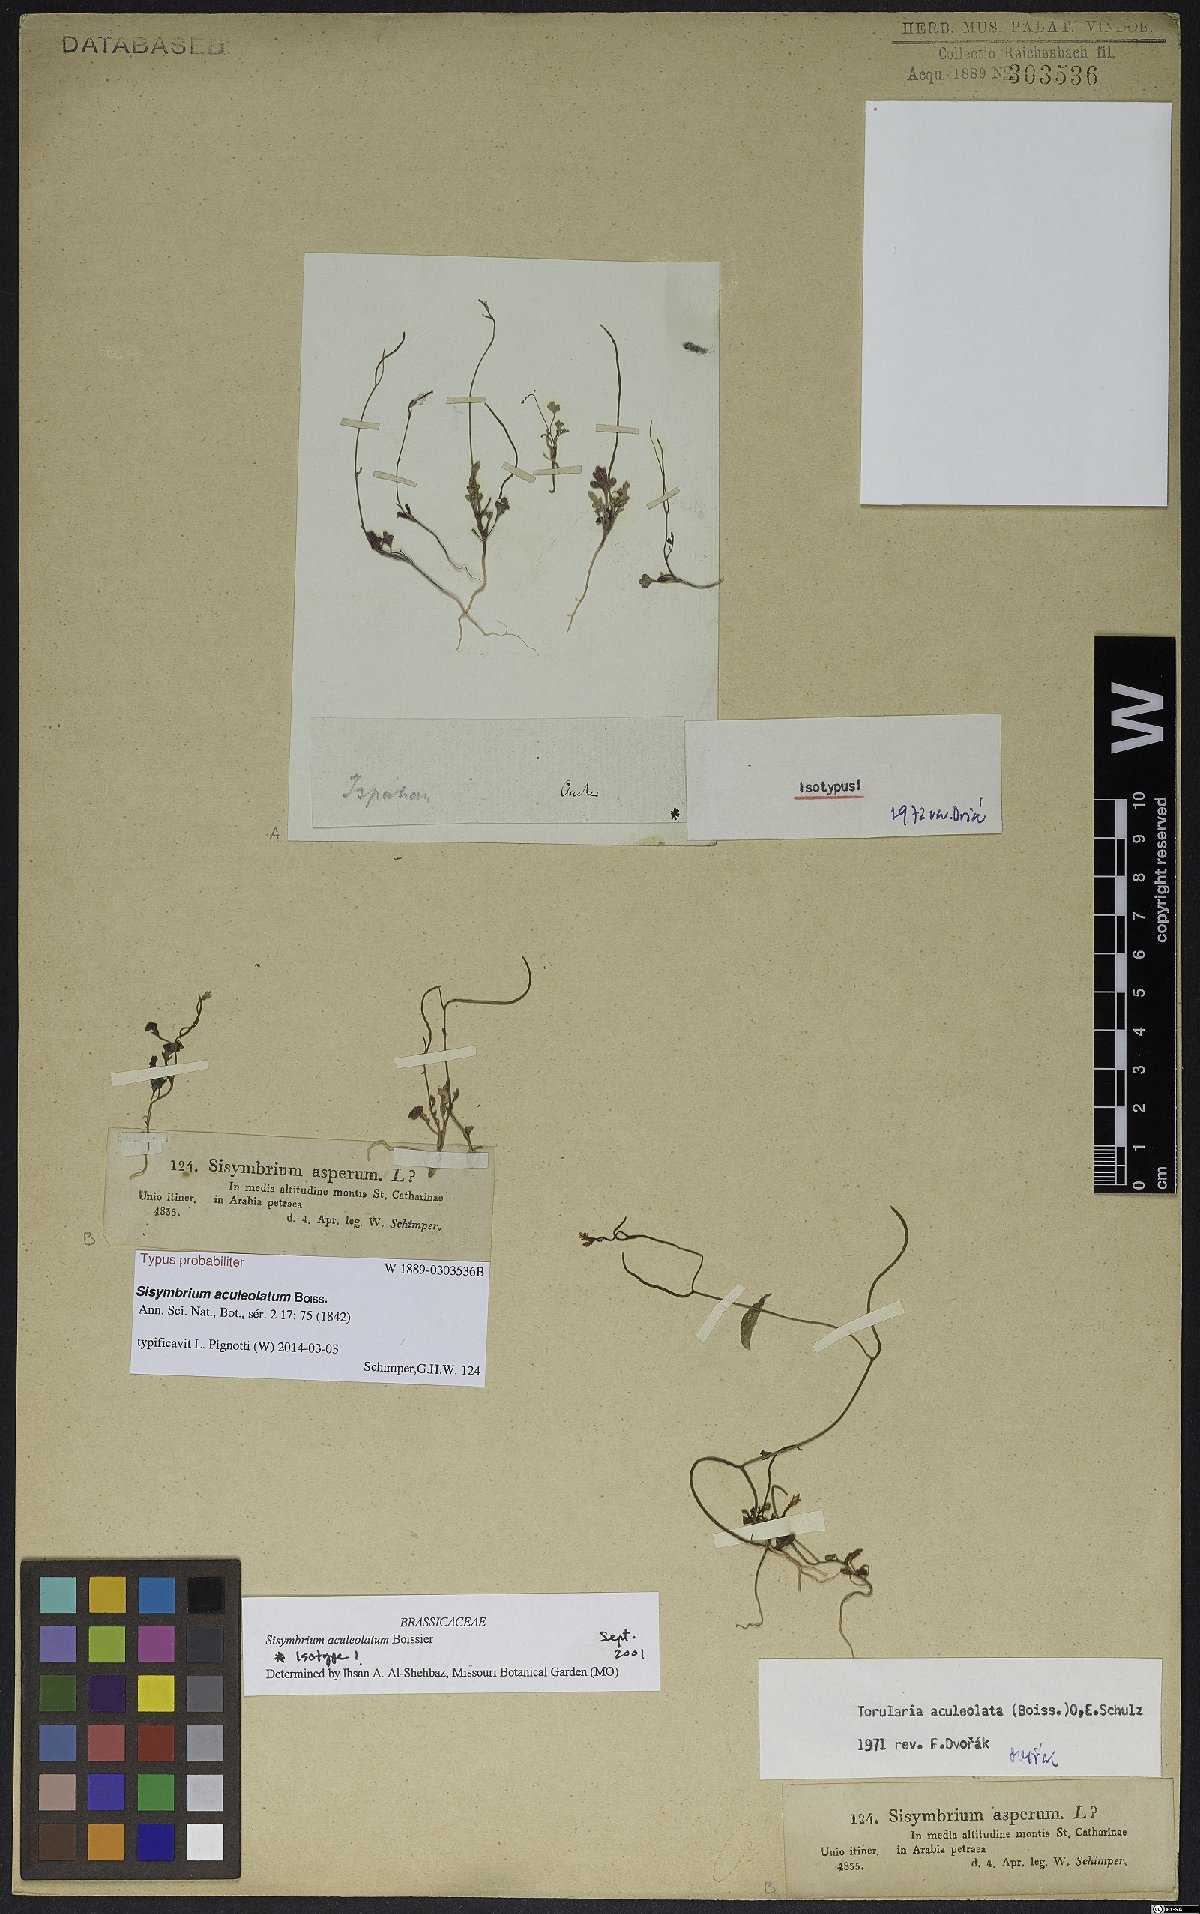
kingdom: Plantae
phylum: Tracheophyta
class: Magnoliopsida
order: Brassicales
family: Brassicaceae
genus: Sisymbrium
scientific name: Sisymbrium aculeolatum
